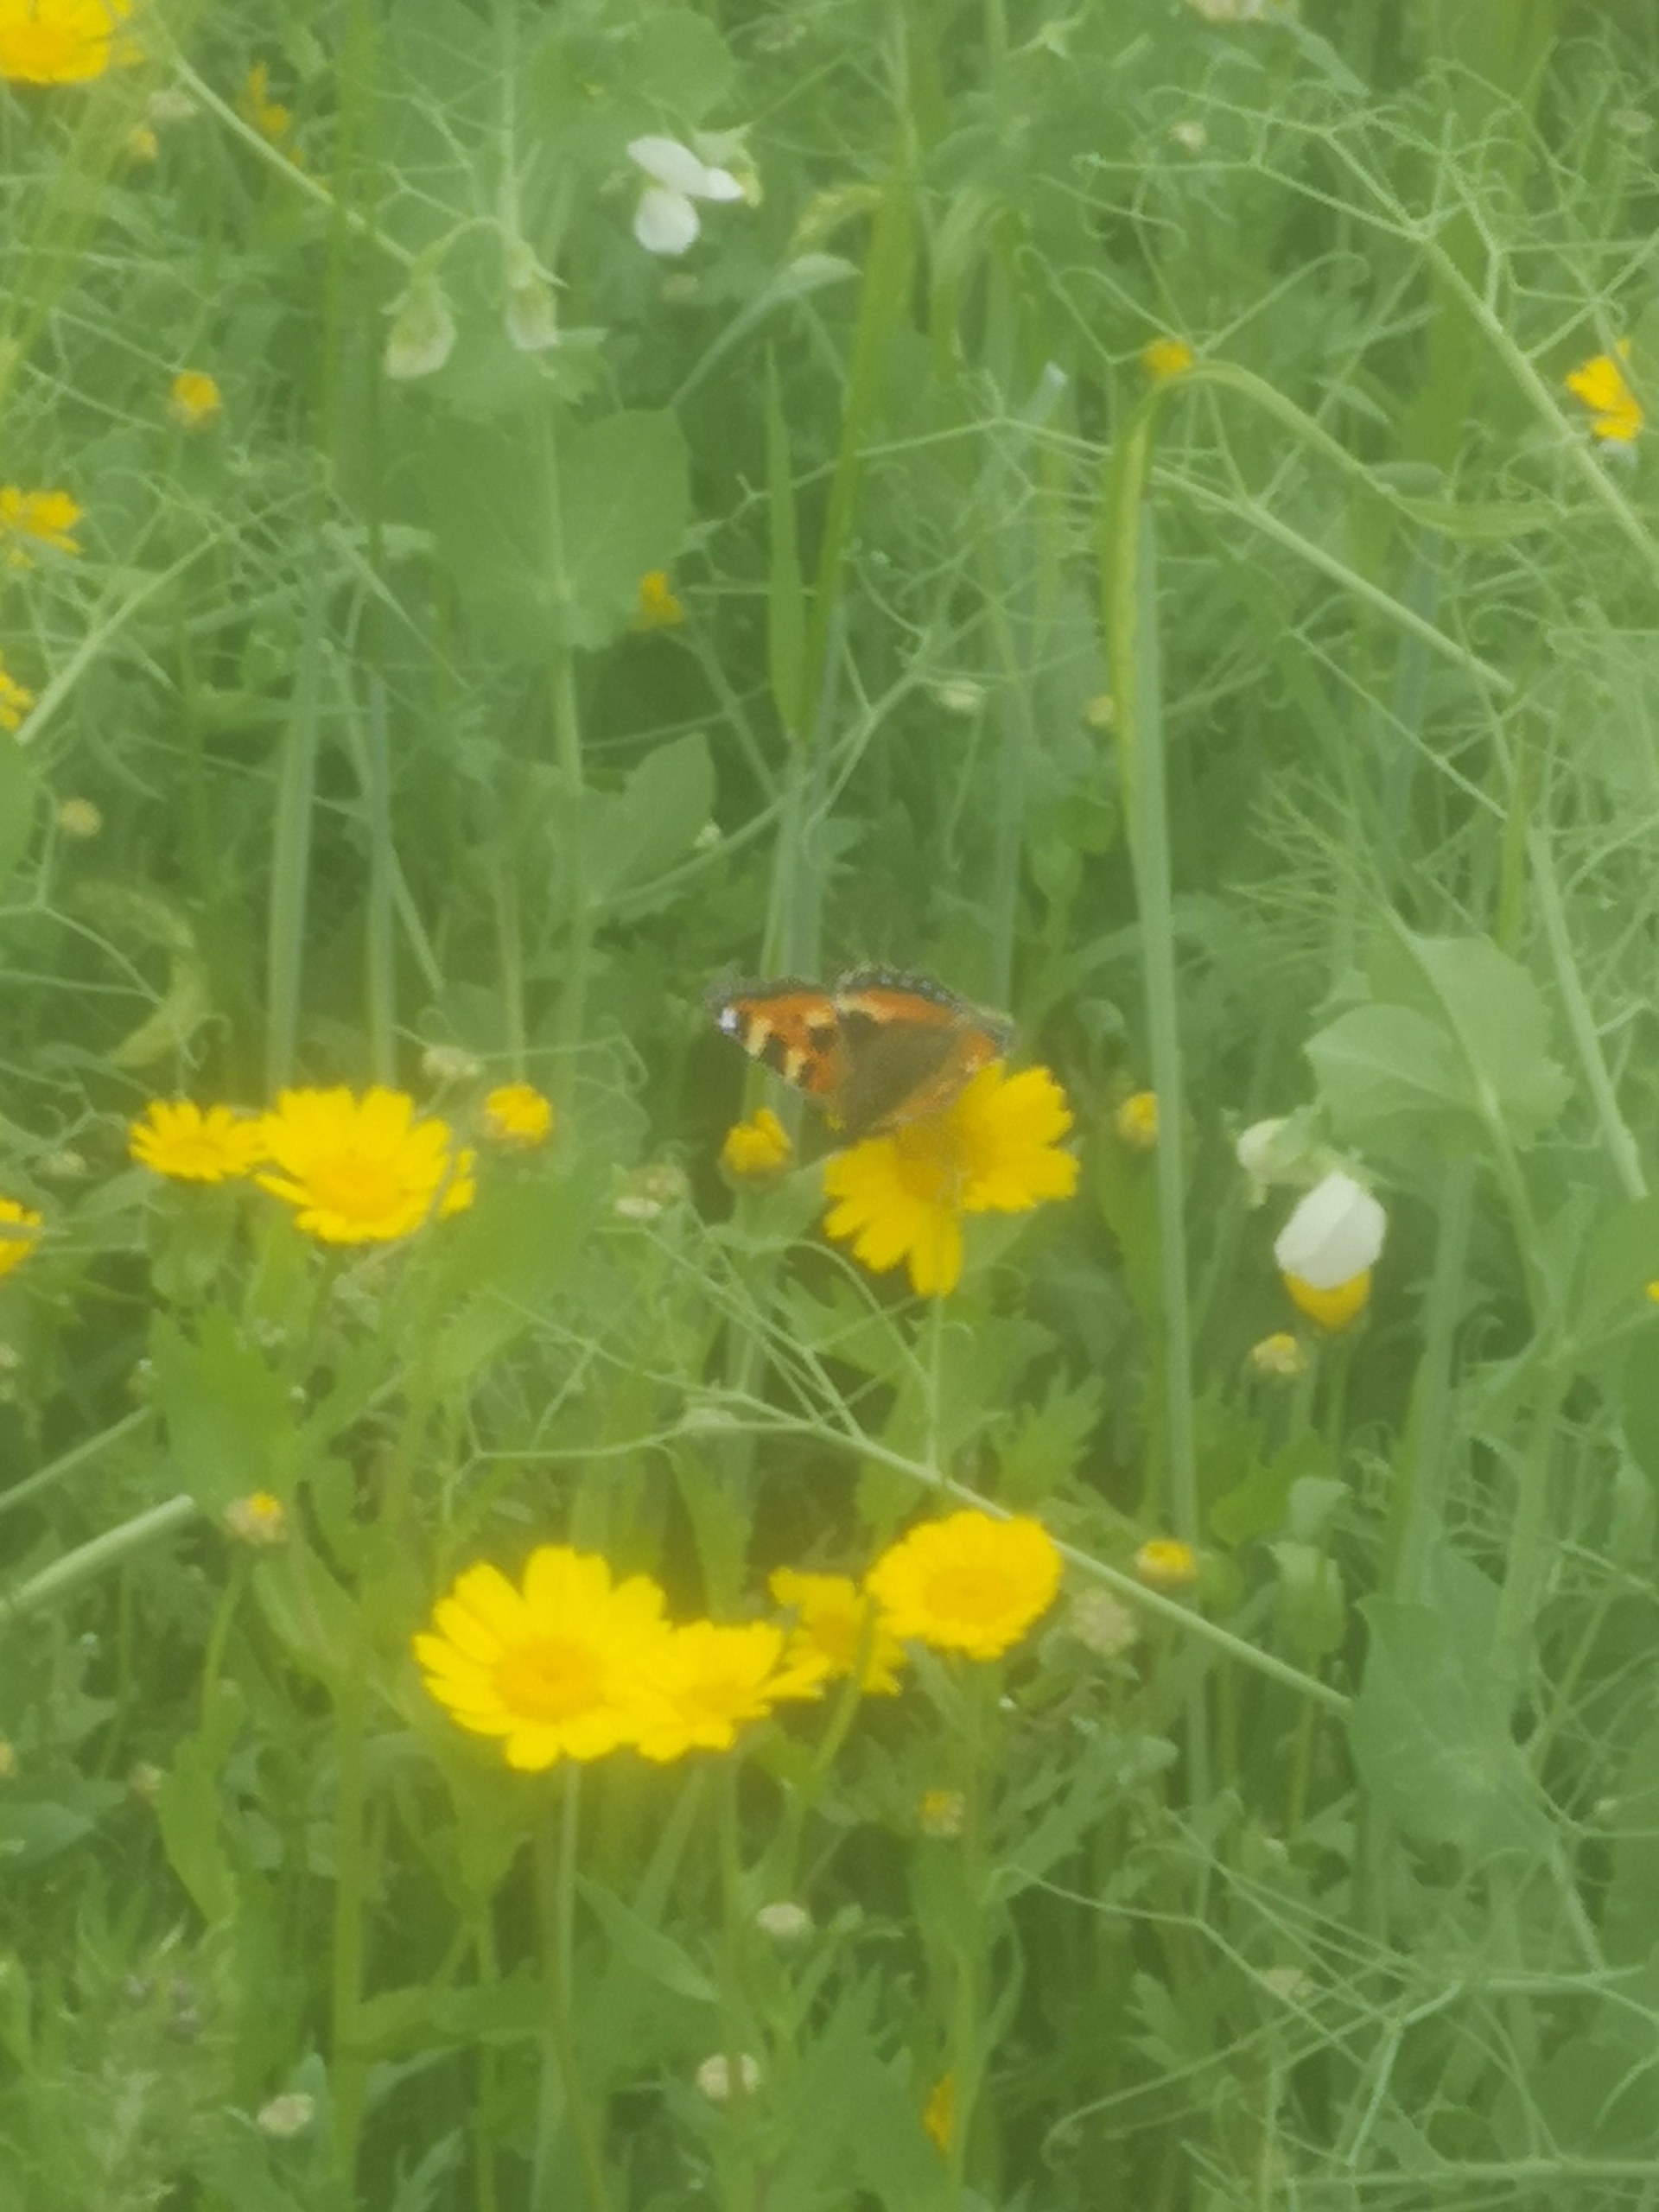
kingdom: Animalia
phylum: Arthropoda
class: Insecta
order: Lepidoptera
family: Nymphalidae
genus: Aglais
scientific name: Aglais urticae
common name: Nældens takvinge
